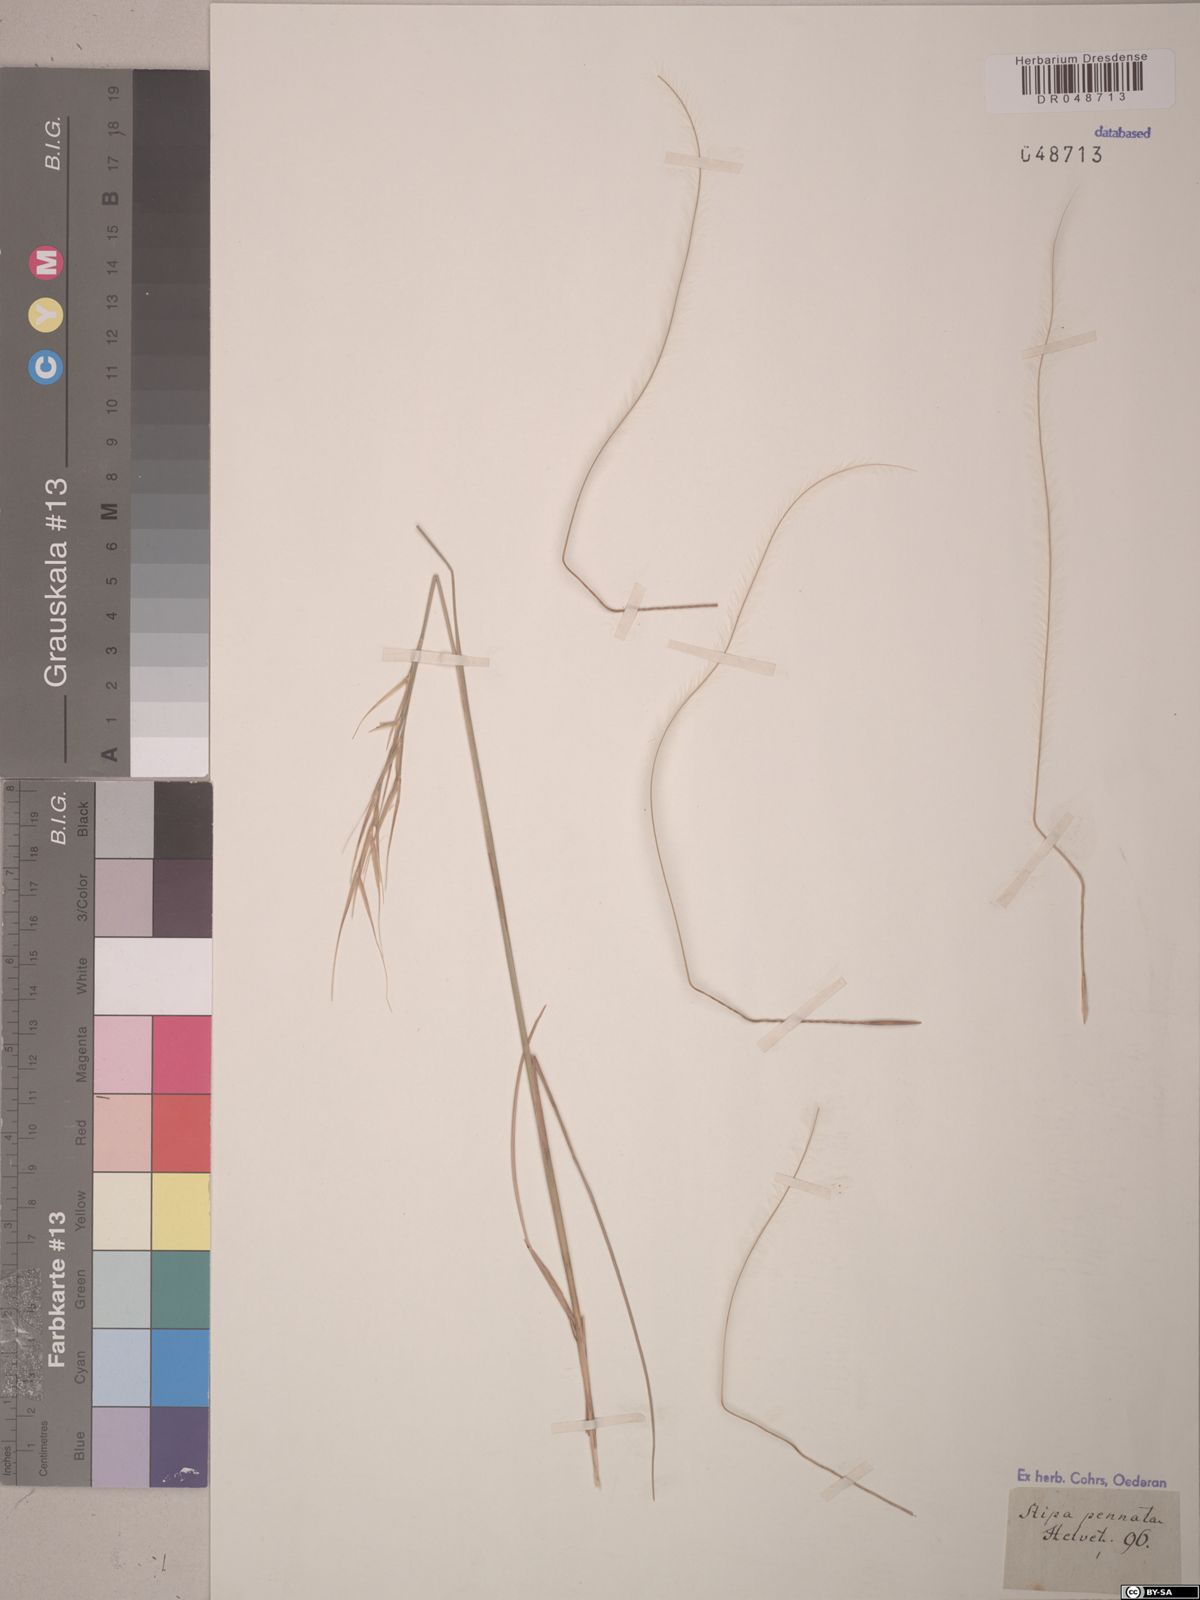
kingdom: Plantae
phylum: Tracheophyta
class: Liliopsida
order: Poales
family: Poaceae
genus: Stipa
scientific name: Stipa pennata
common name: European feather grass
